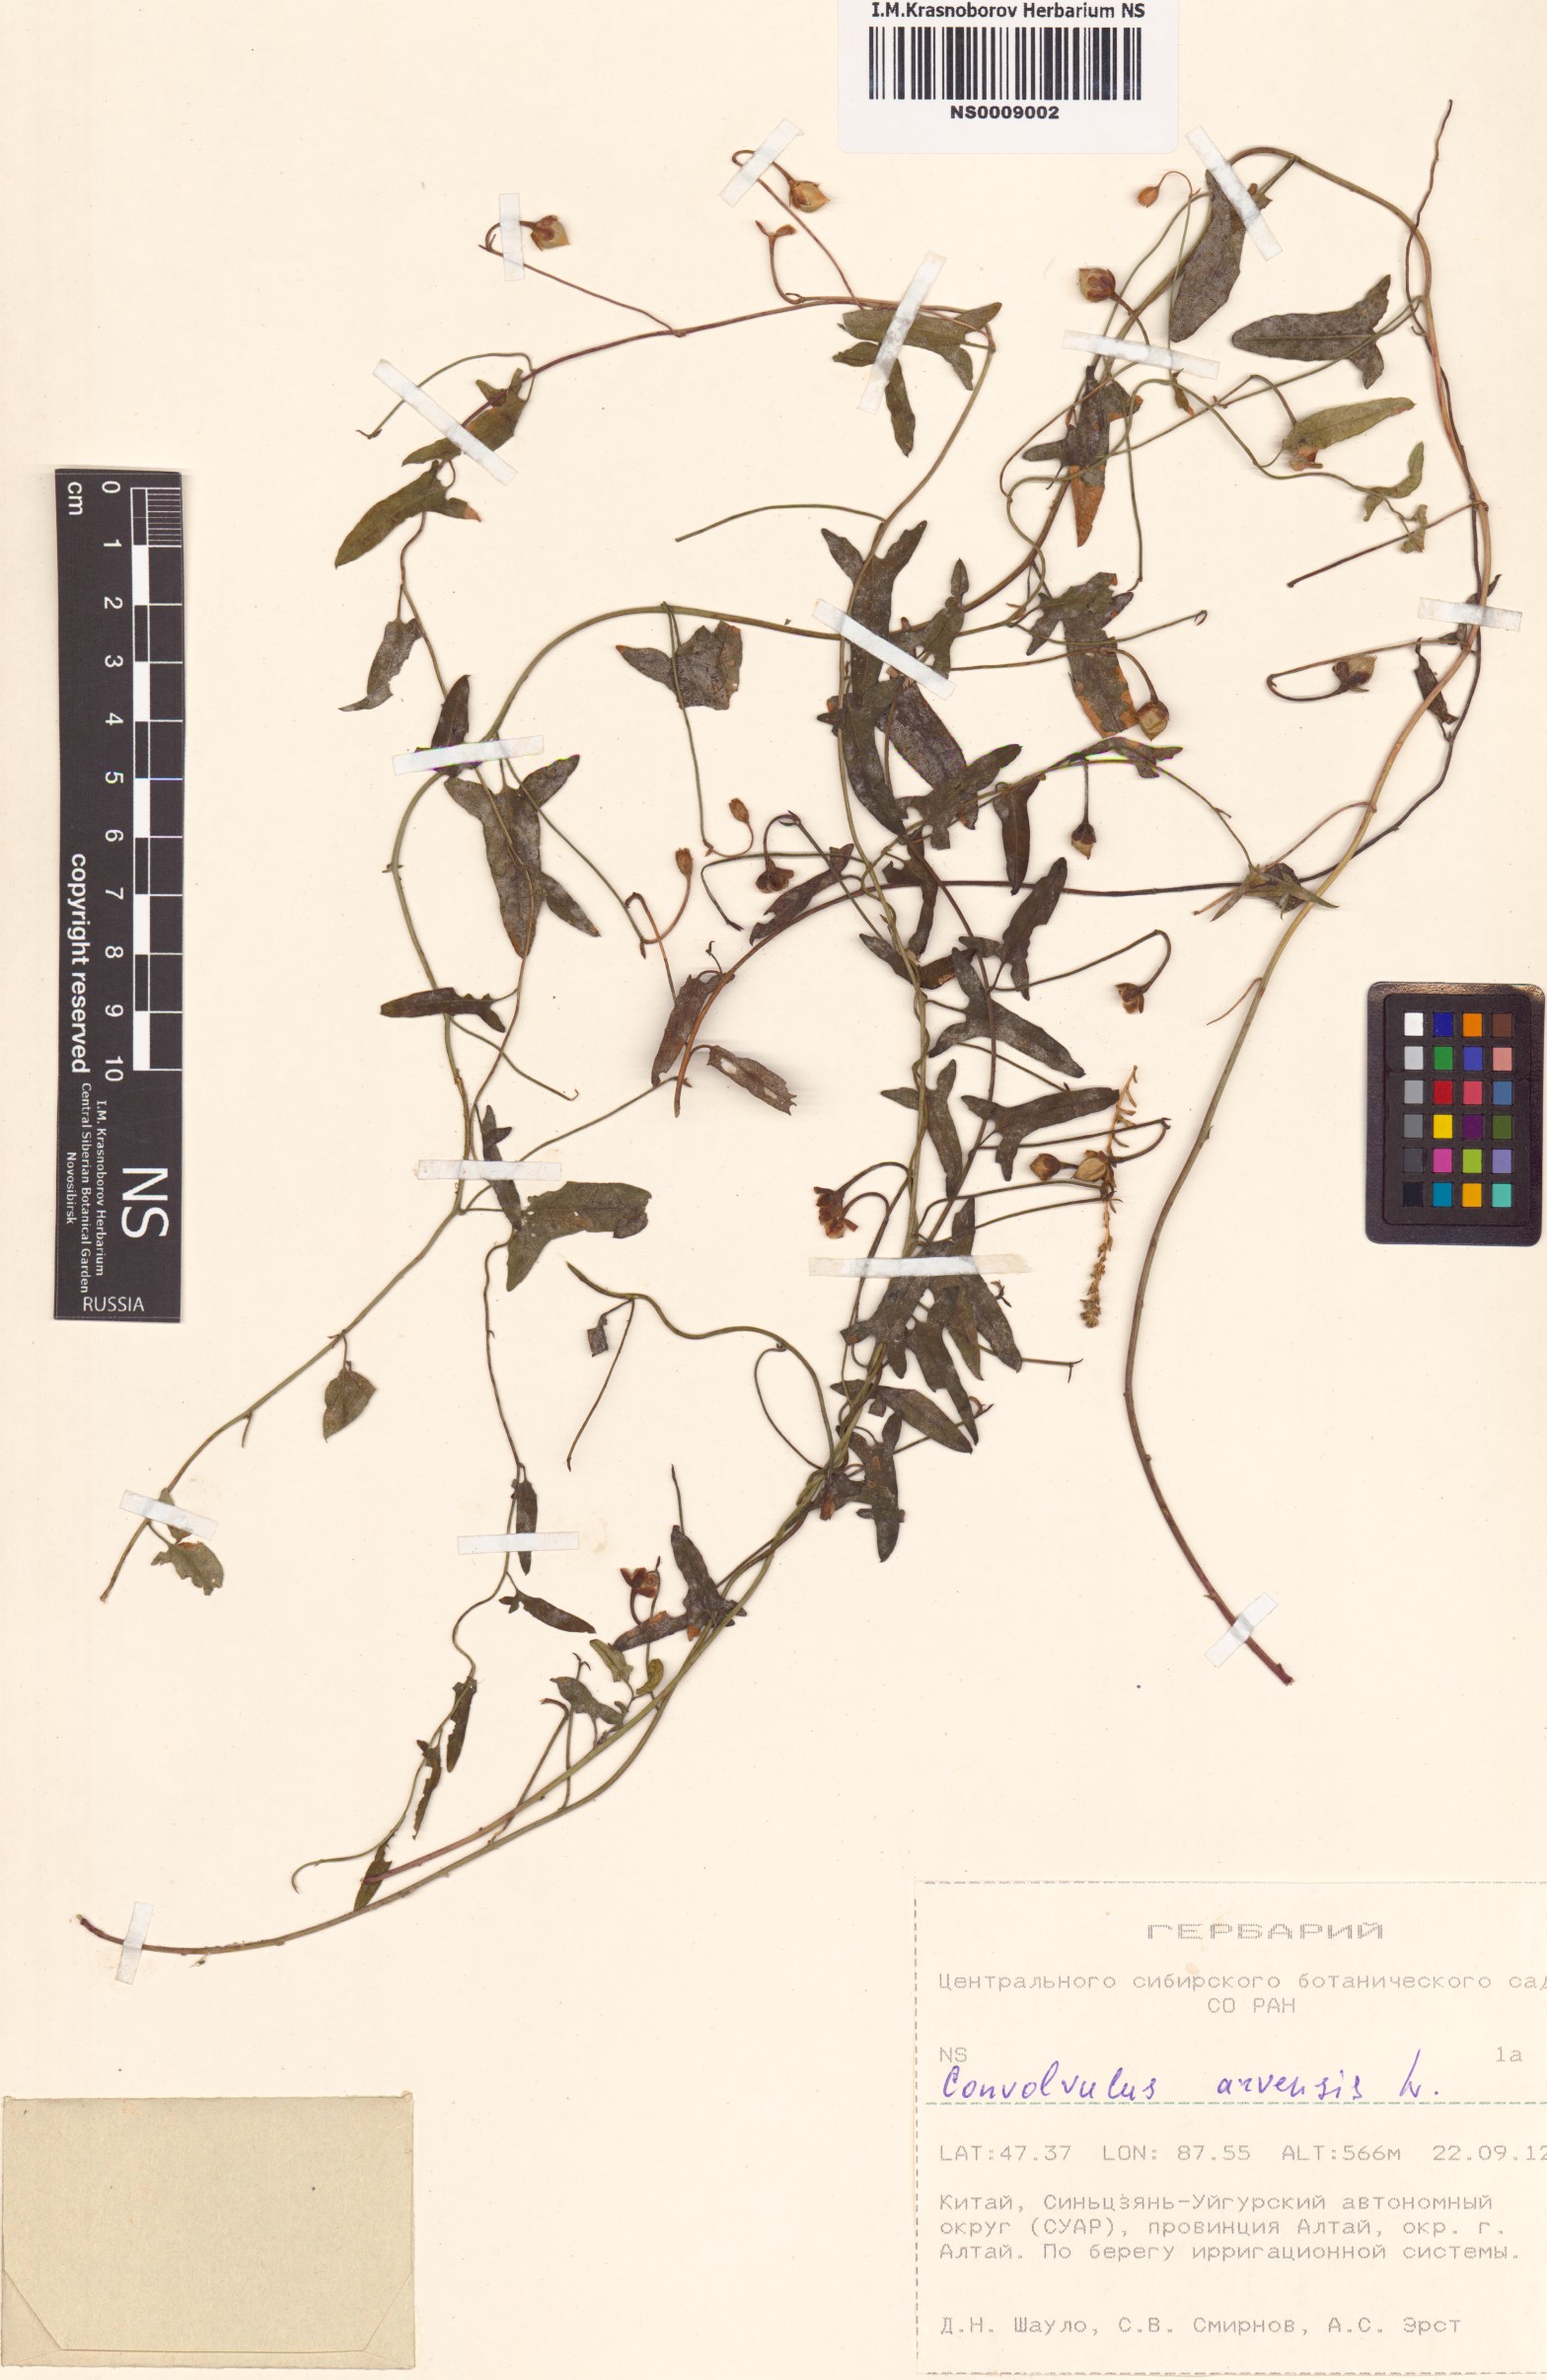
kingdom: Plantae
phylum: Tracheophyta
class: Magnoliopsida
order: Solanales
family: Convolvulaceae
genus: Convolvulus
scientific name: Convolvulus arvensis
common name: Field bindweed
